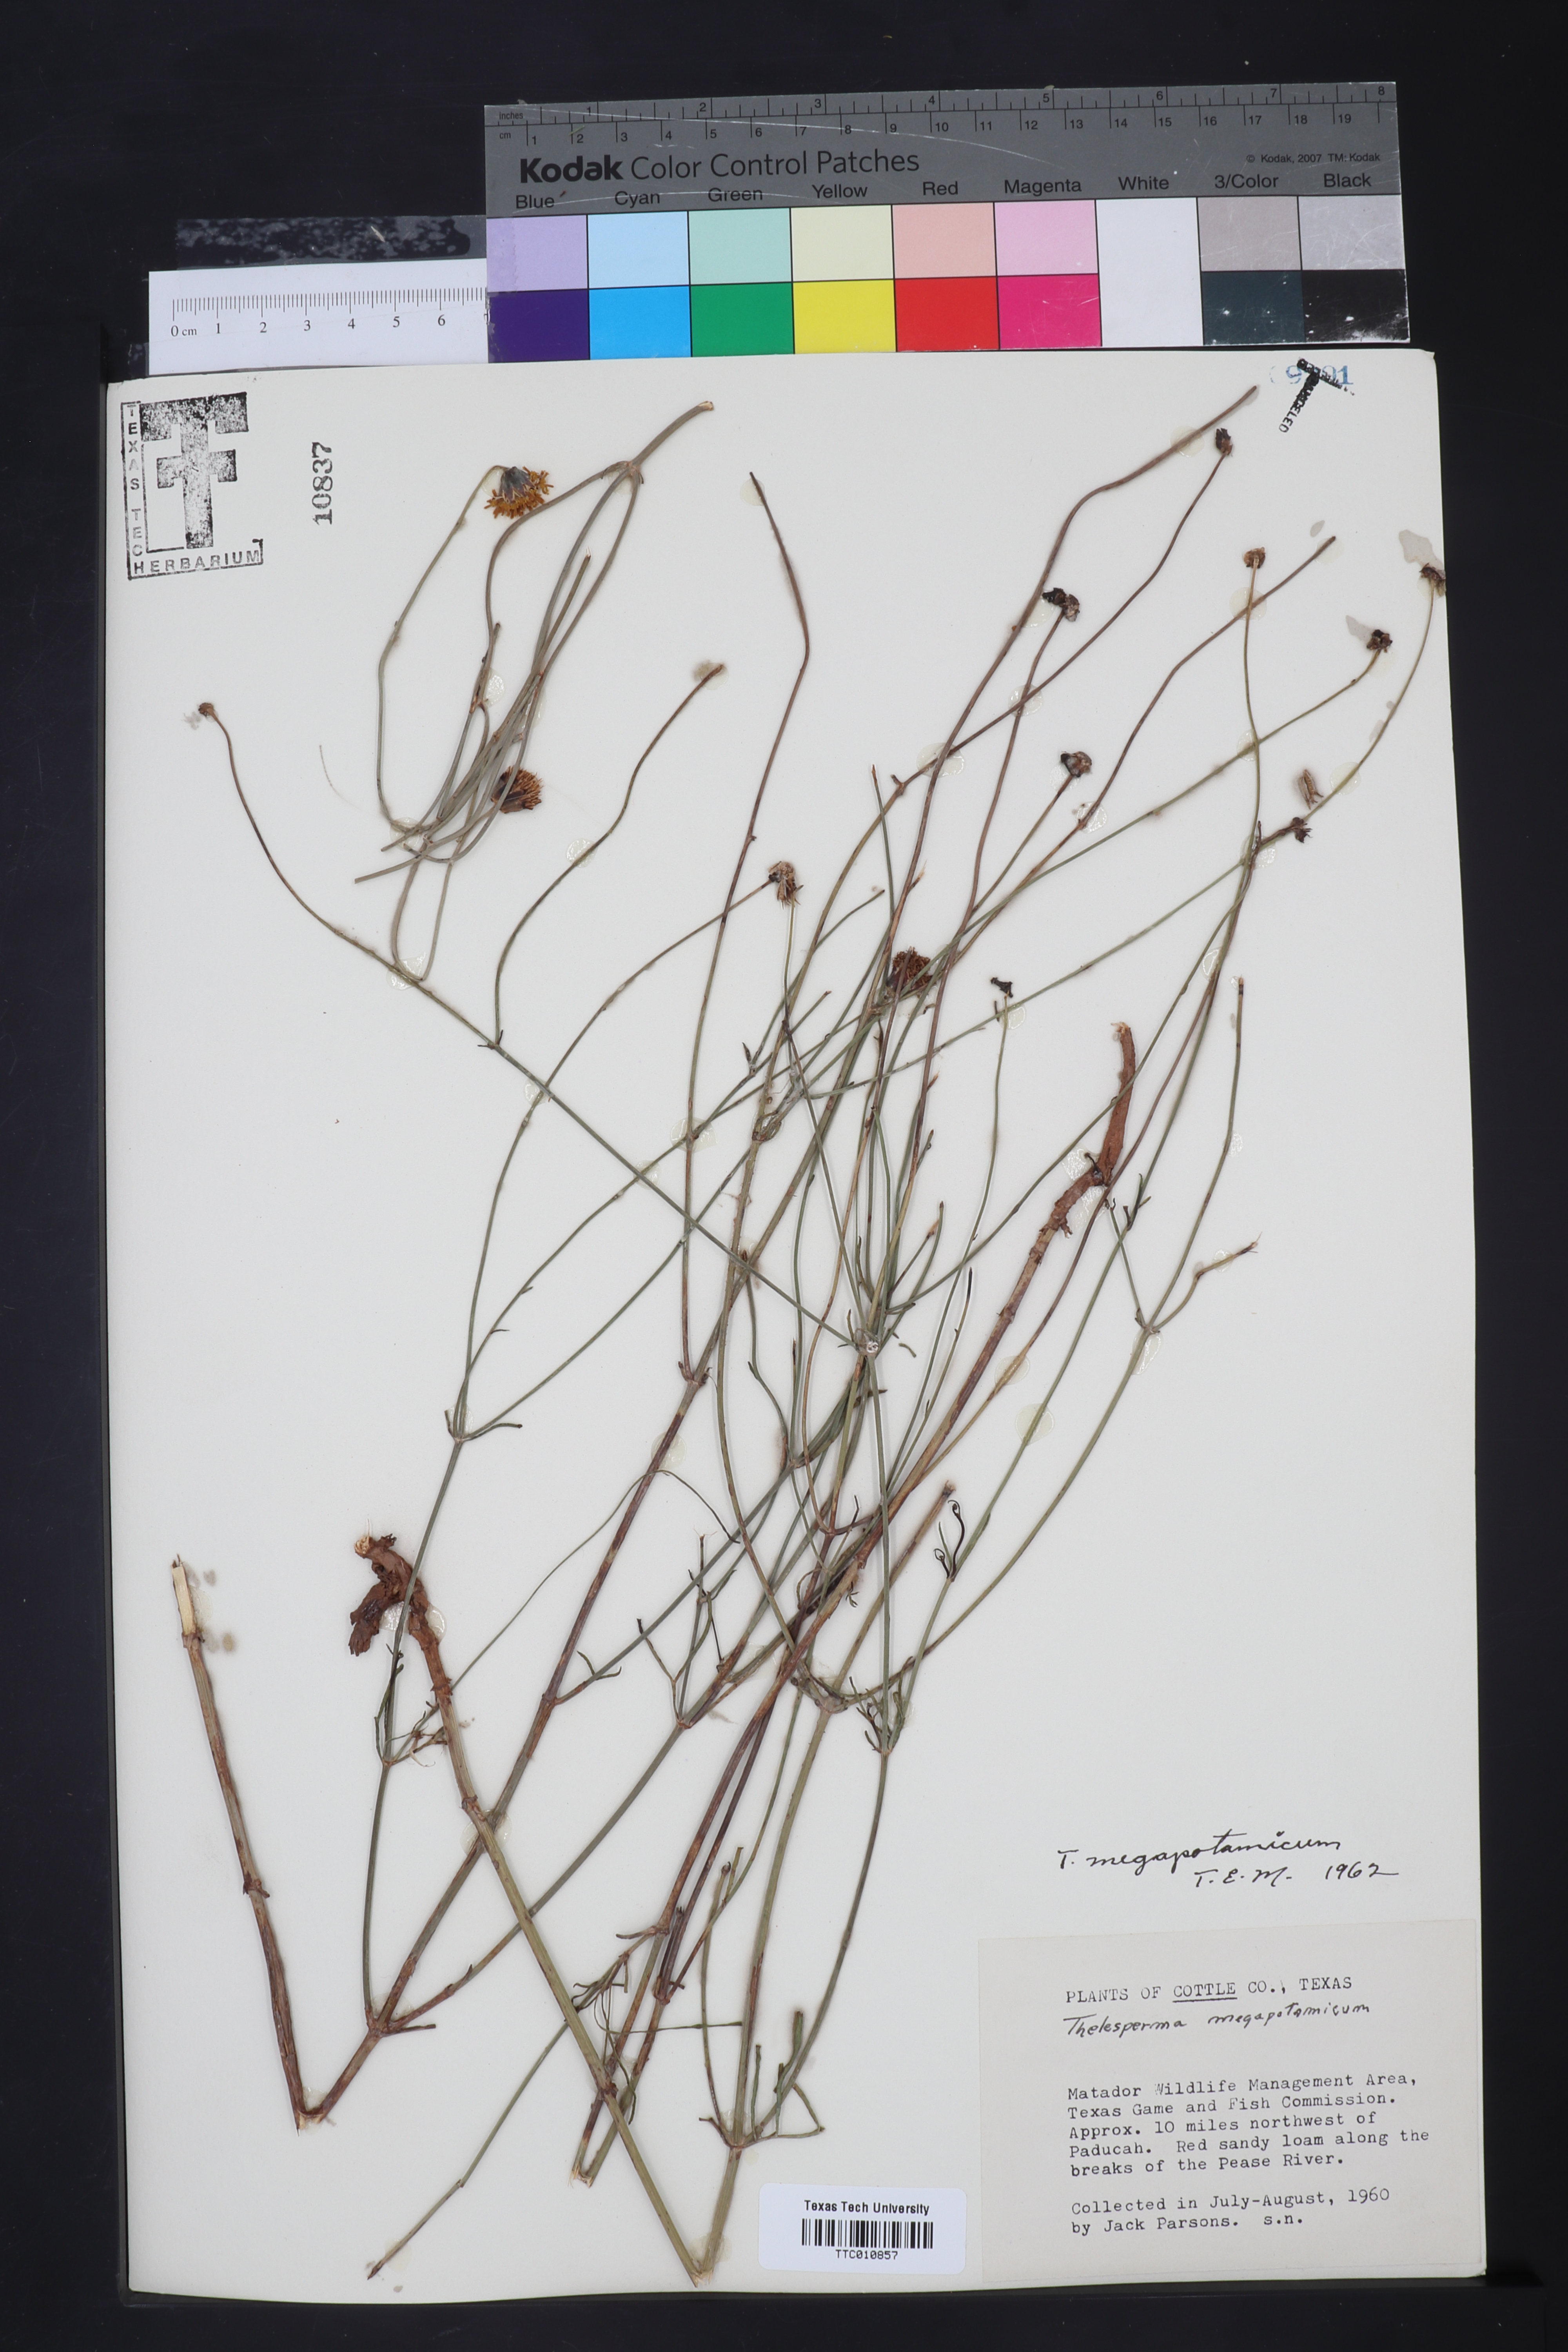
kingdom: Plantae
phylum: Tracheophyta
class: Magnoliopsida
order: Asterales
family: Asteraceae
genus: Thelesperma
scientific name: Thelesperma megapotamicum
